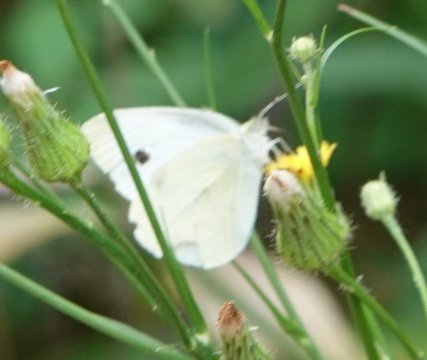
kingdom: Animalia
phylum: Arthropoda
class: Insecta
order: Lepidoptera
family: Pieridae
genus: Pieris
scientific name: Pieris rapae
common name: Cabbage White
